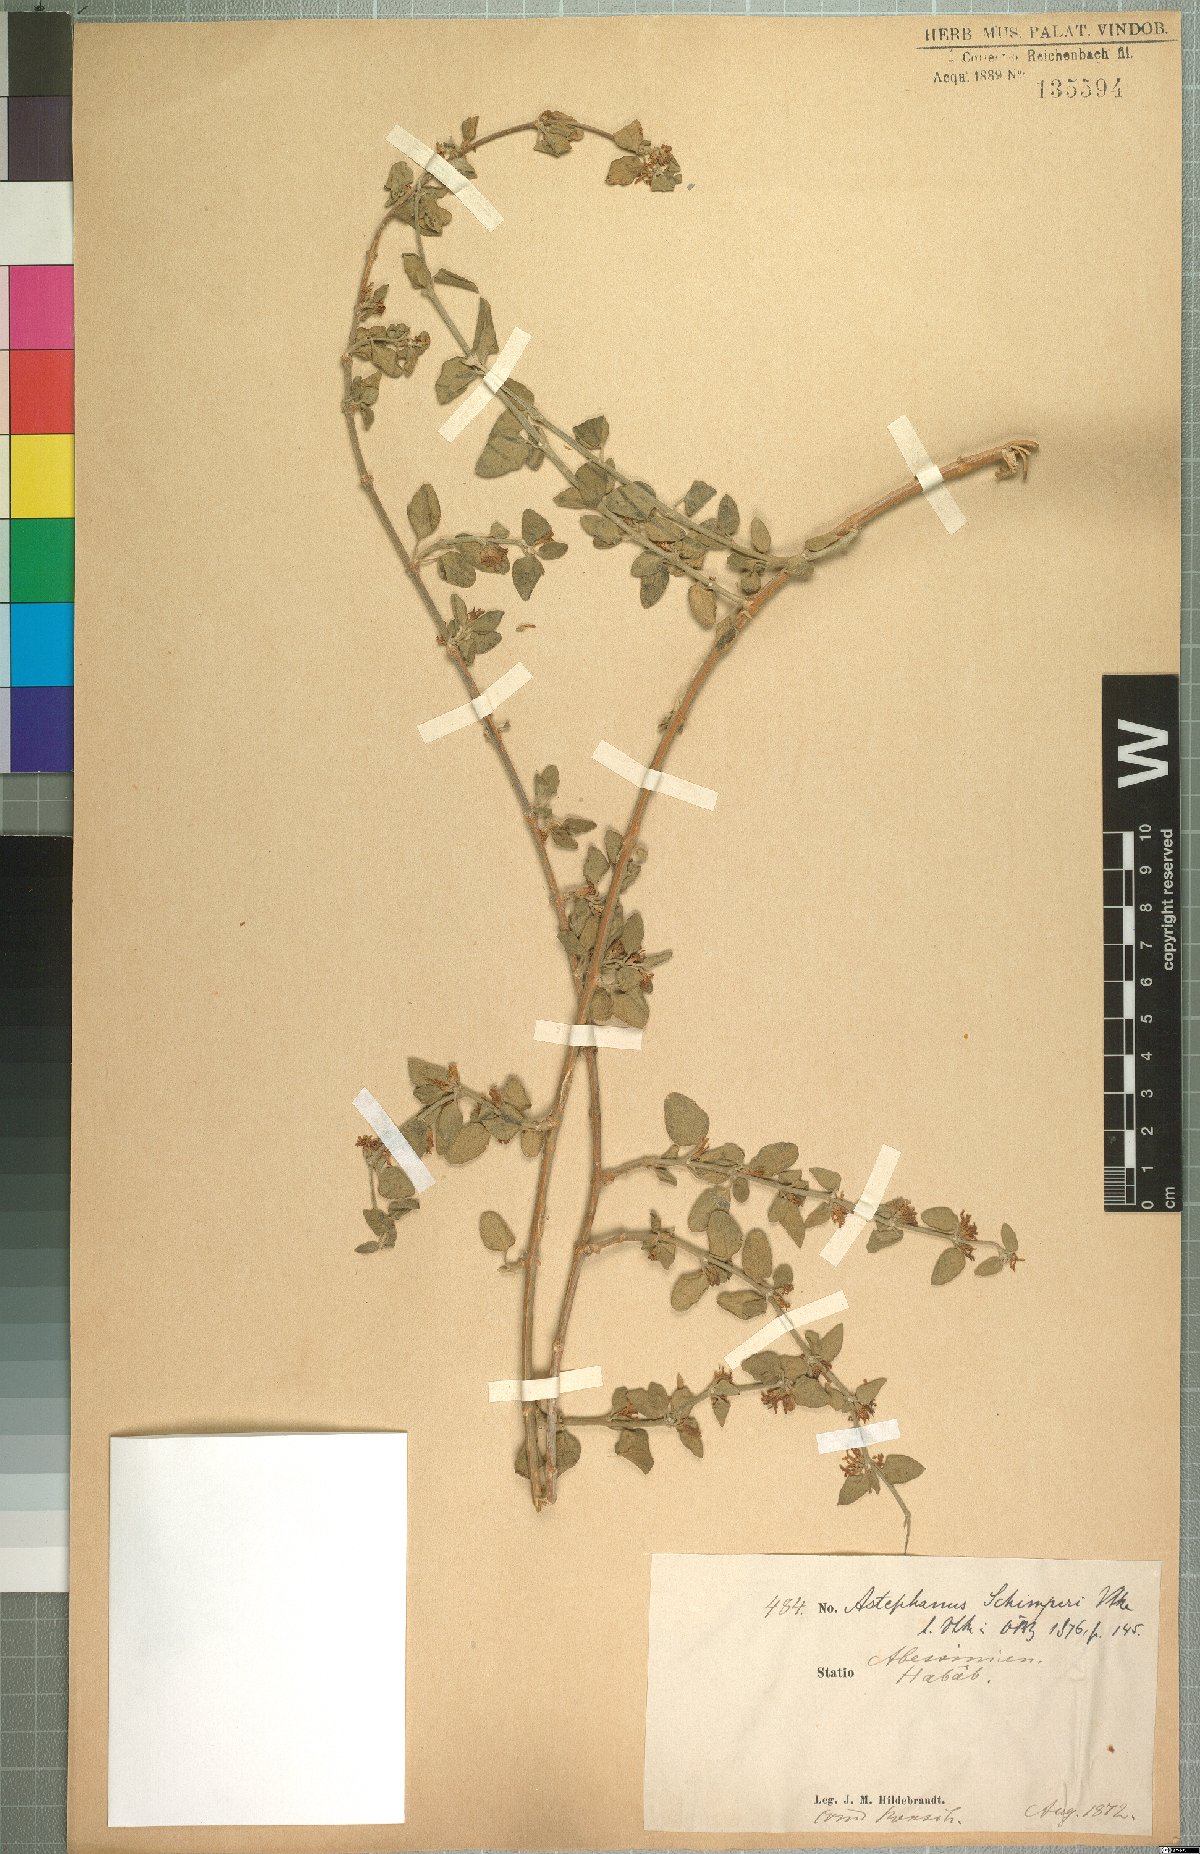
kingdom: Plantae
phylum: Tracheophyta
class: Magnoliopsida
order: Gentianales
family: Apocynaceae
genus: Vincetoxicum
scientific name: Vincetoxicum schimperi
